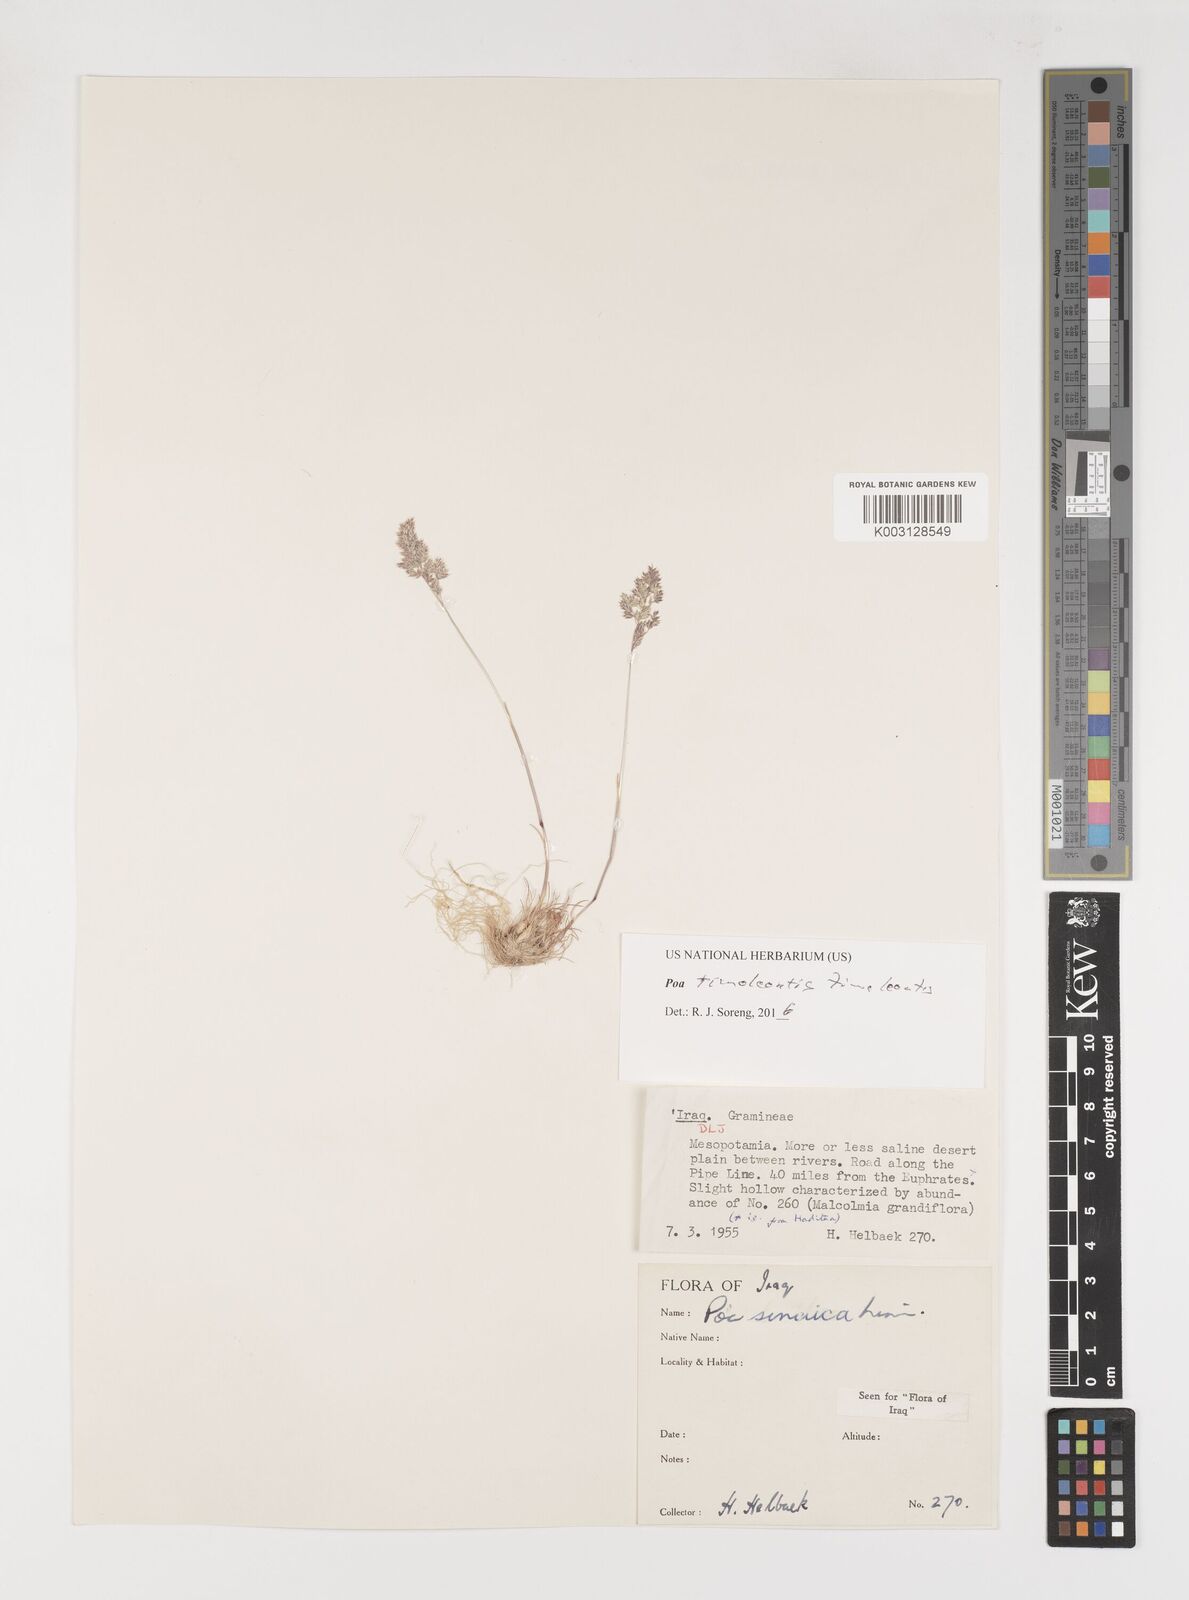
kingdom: Plantae
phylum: Tracheophyta
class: Liliopsida
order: Poales
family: Poaceae
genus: Poa
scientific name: Poa timoleontis
